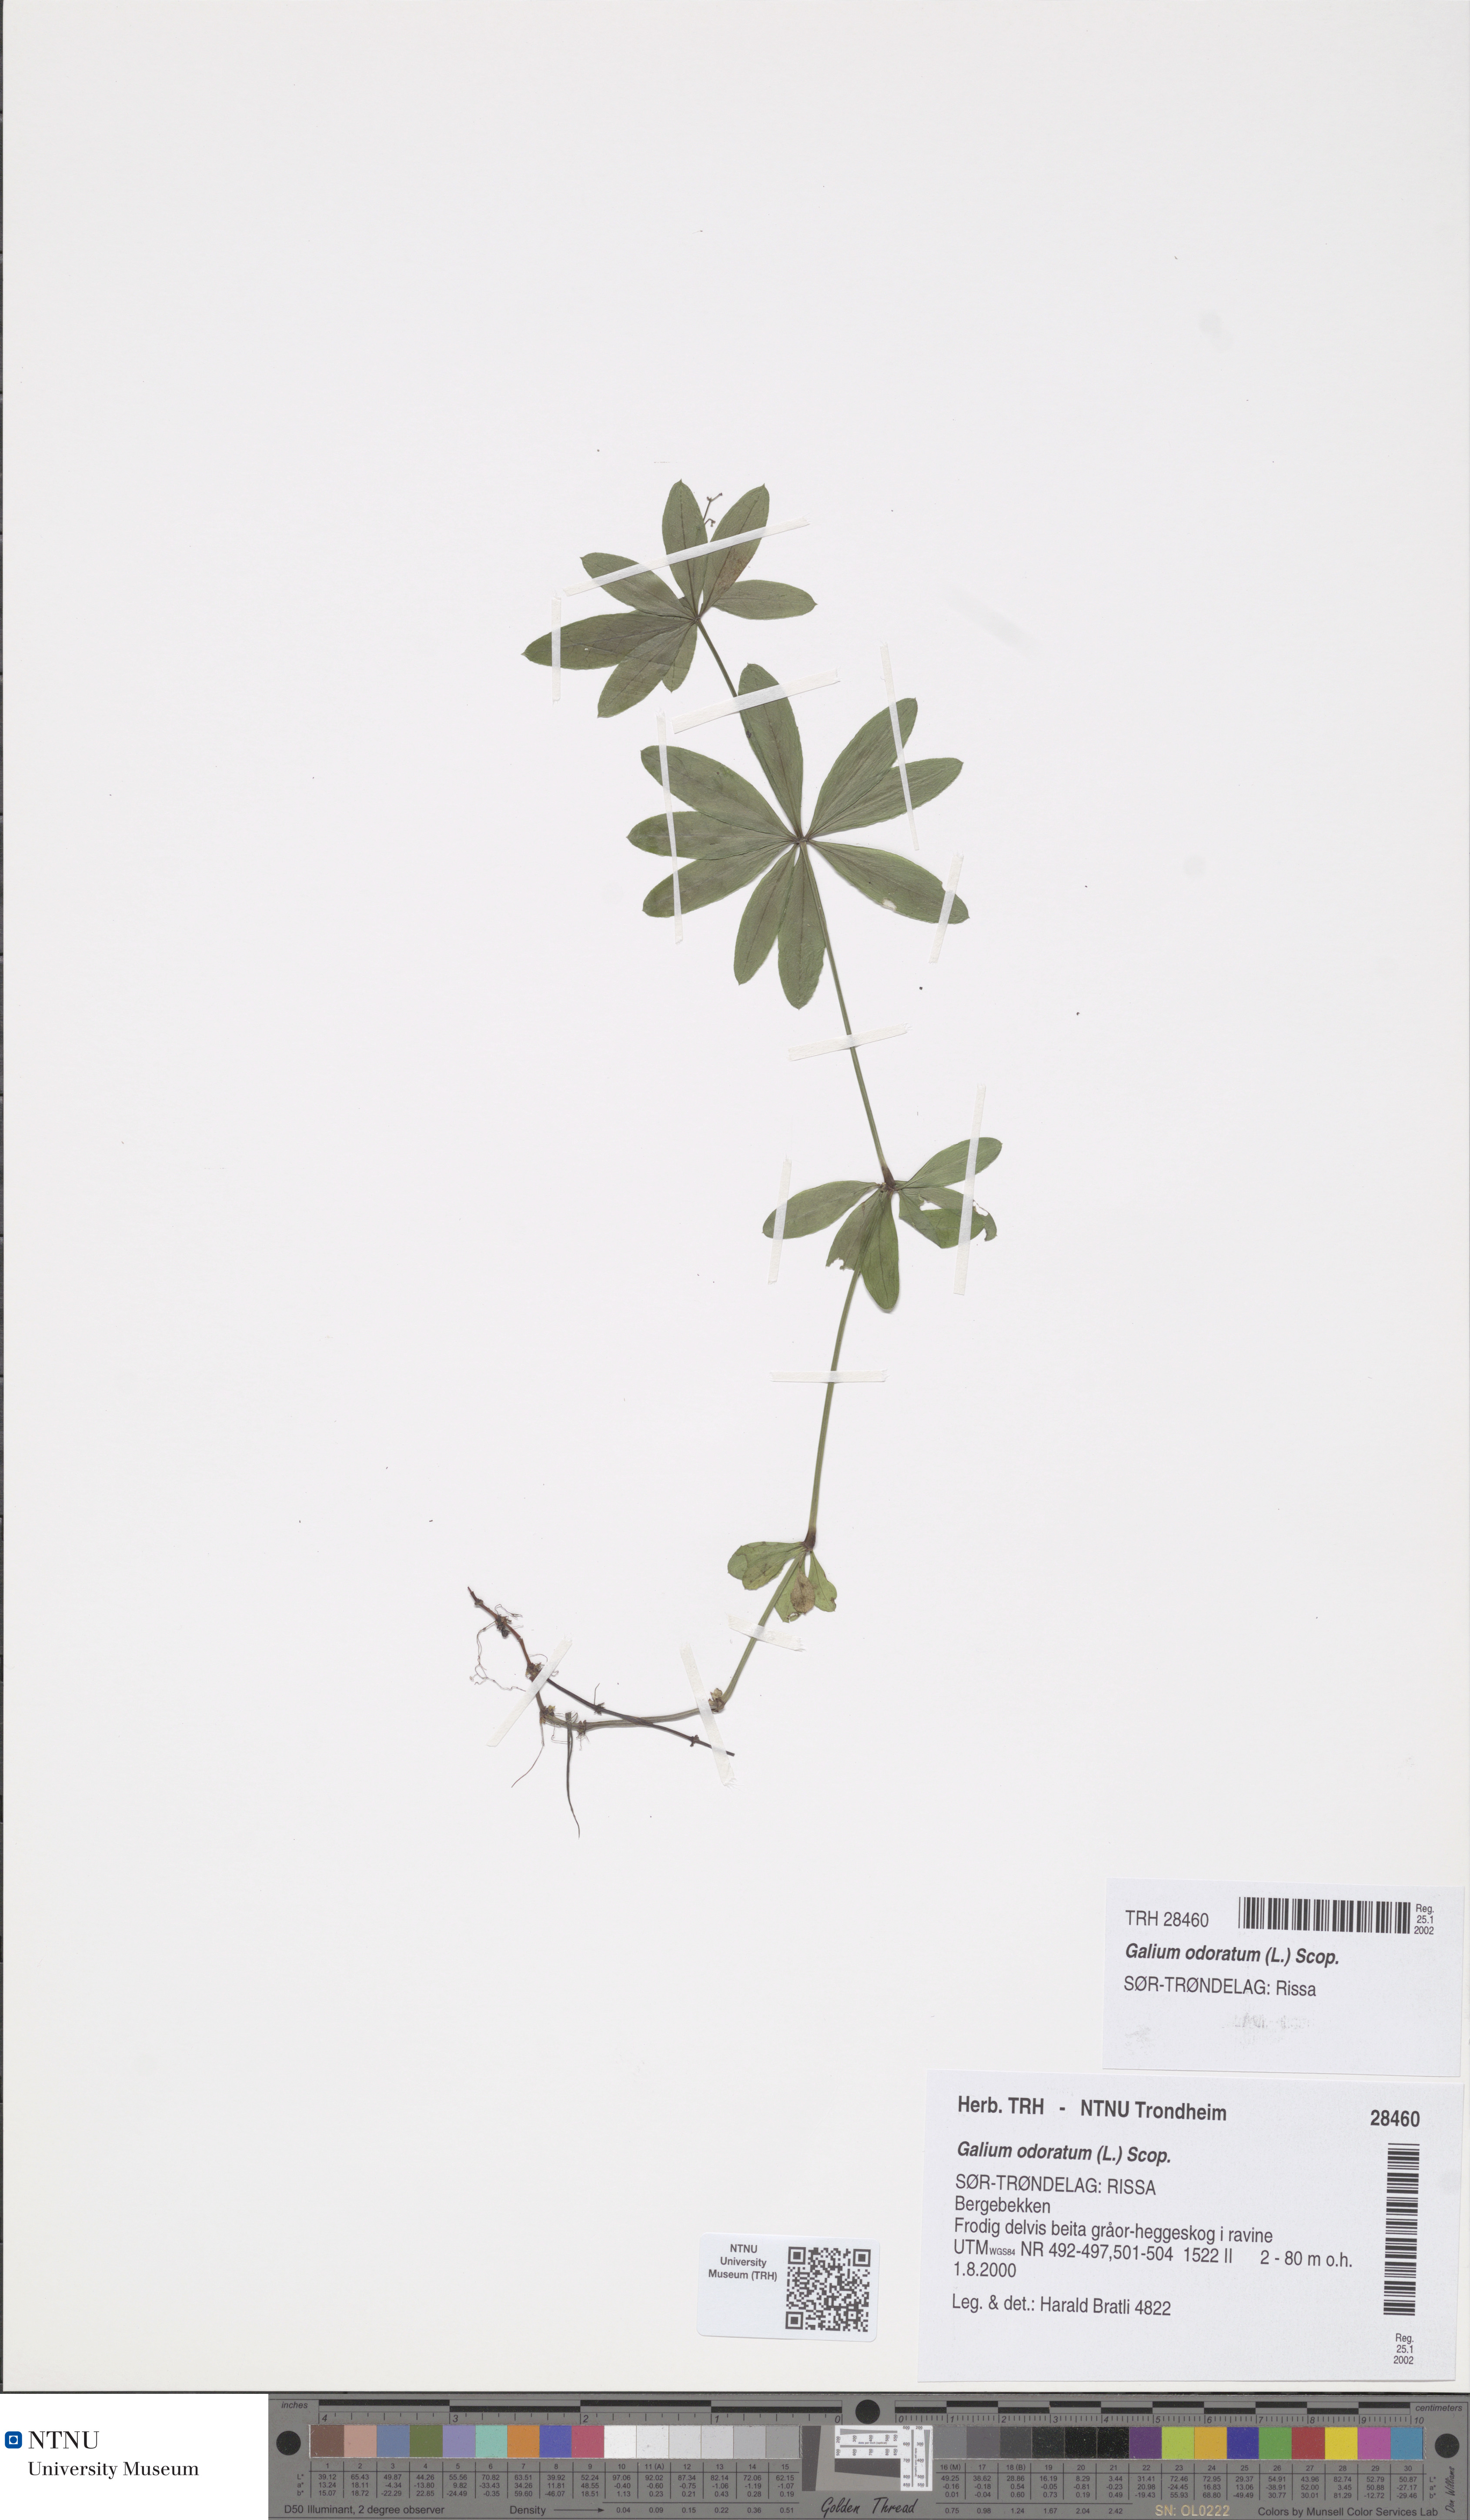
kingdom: Plantae
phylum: Tracheophyta
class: Magnoliopsida
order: Gentianales
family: Rubiaceae
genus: Galium
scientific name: Galium odoratum
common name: Sweet woodruff
